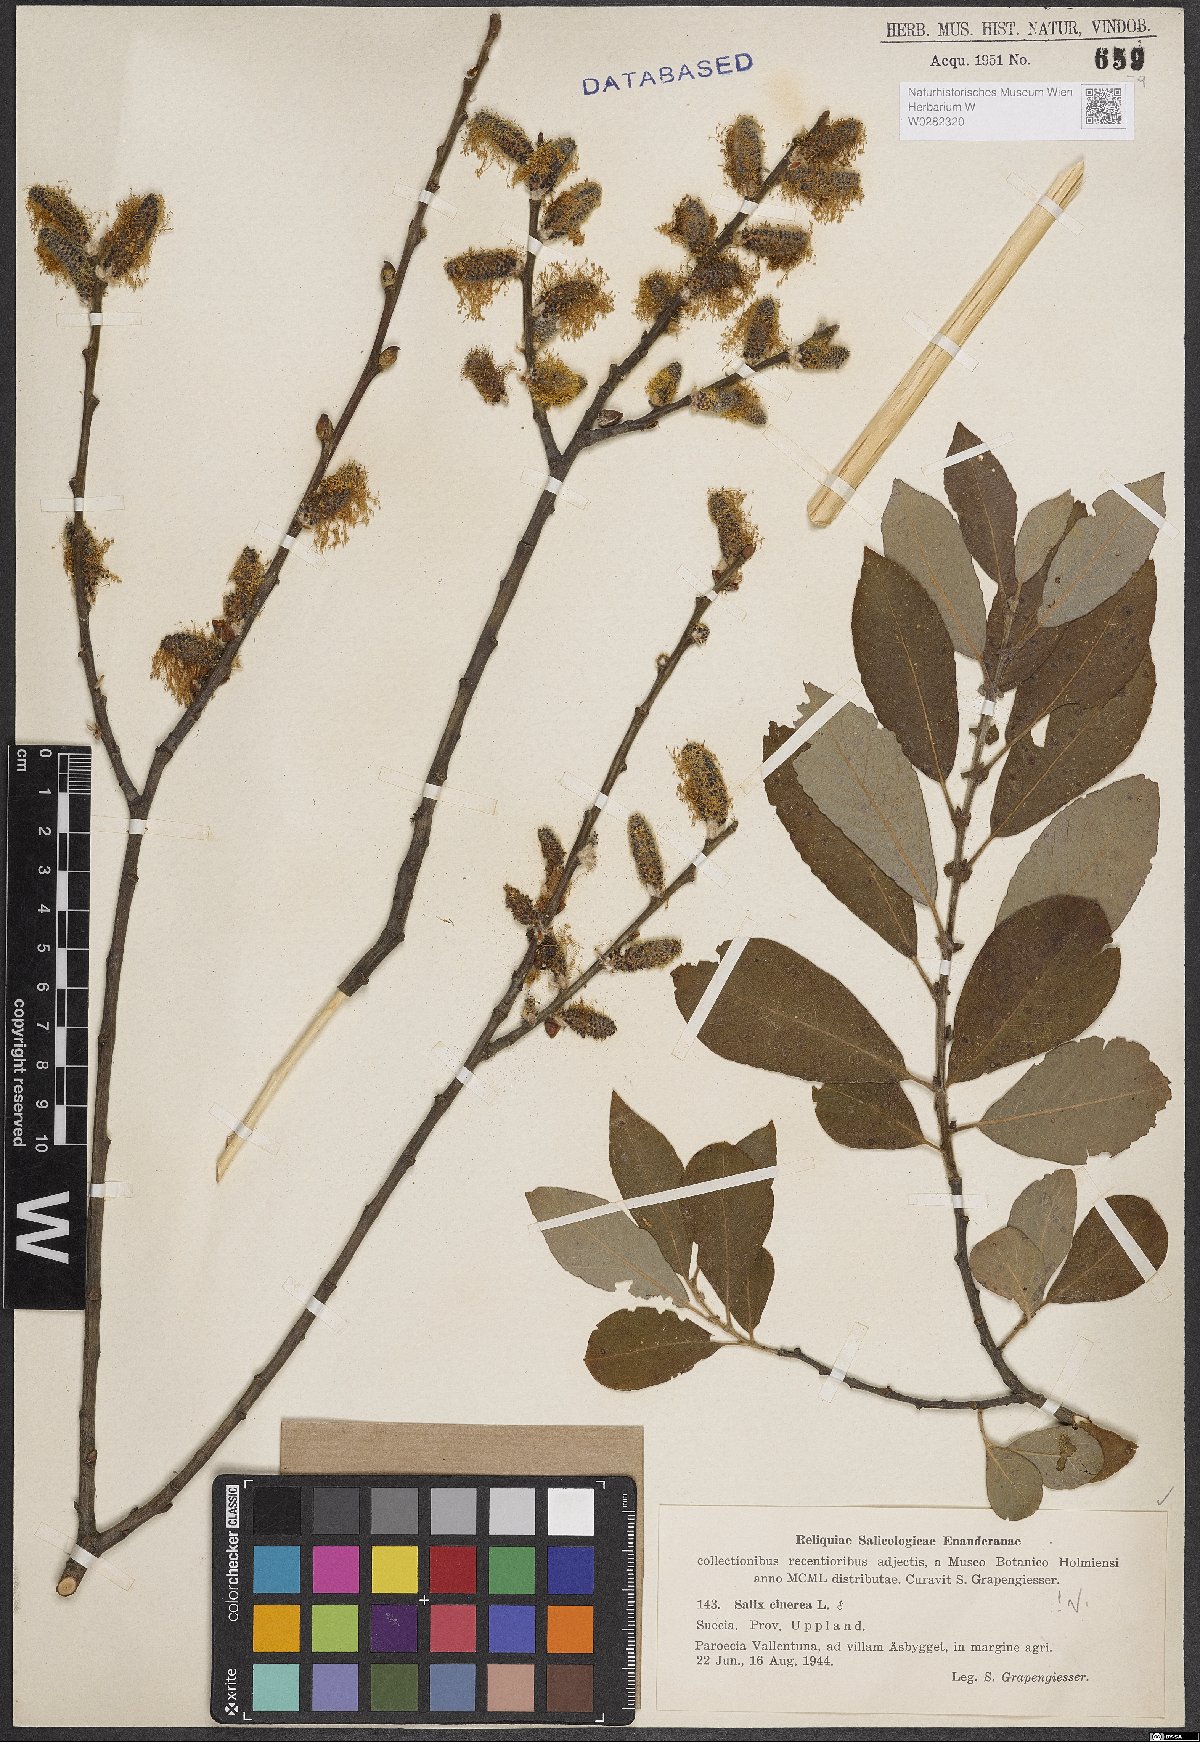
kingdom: Plantae
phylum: Tracheophyta
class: Magnoliopsida
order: Malpighiales
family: Salicaceae
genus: Salix
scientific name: Salix cinerea
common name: Common sallow
